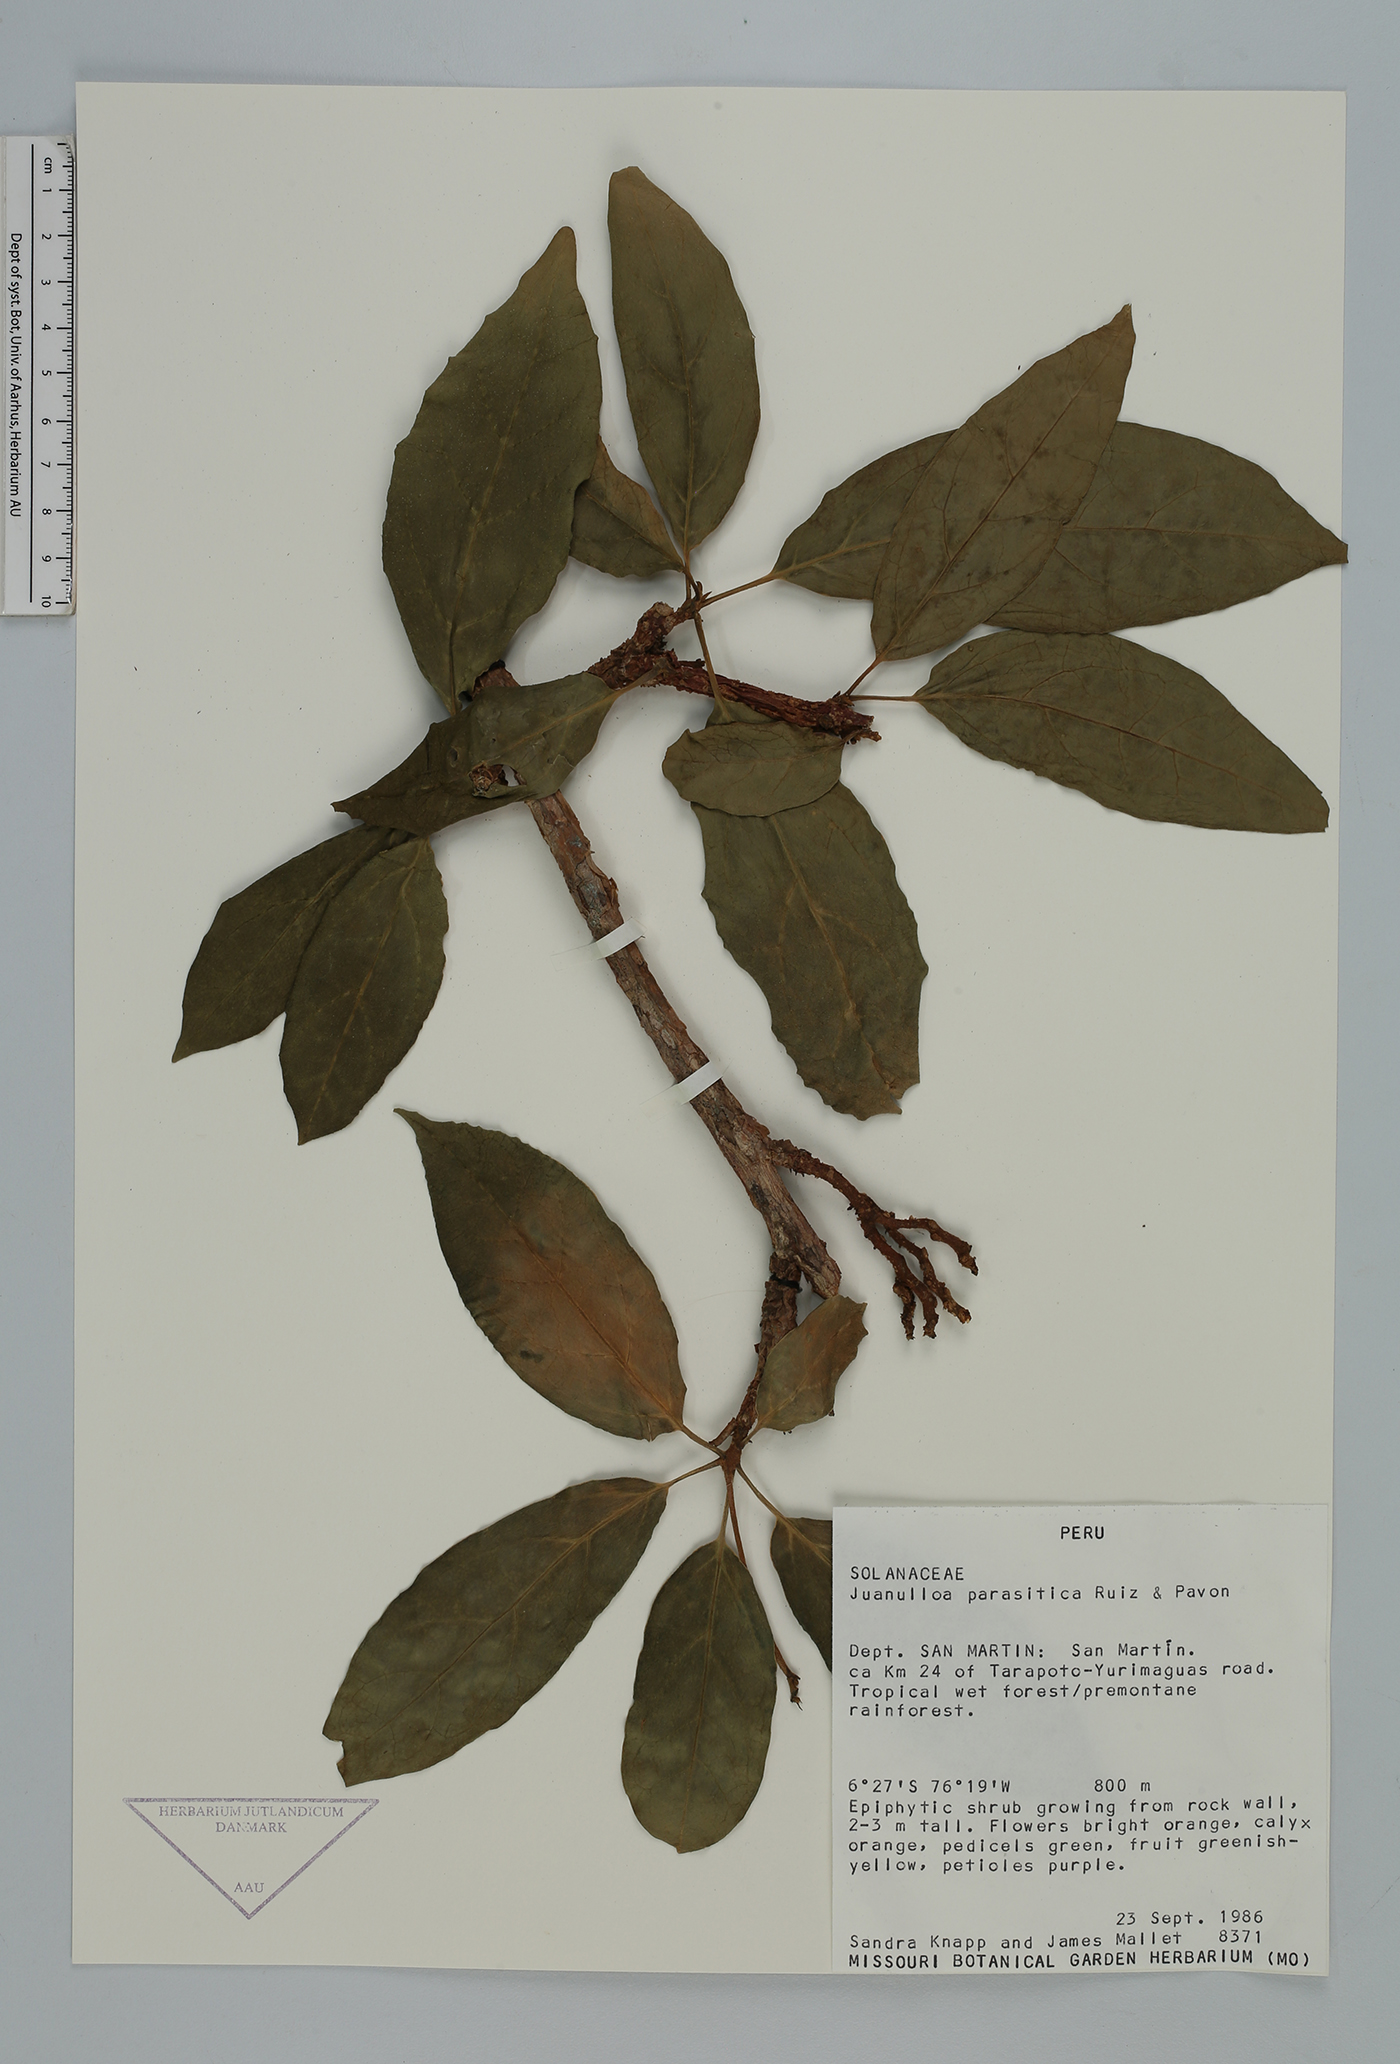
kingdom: Plantae
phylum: Tracheophyta
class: Magnoliopsida
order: Solanales
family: Solanaceae
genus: Juanulloa
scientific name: Juanulloa parasitica
